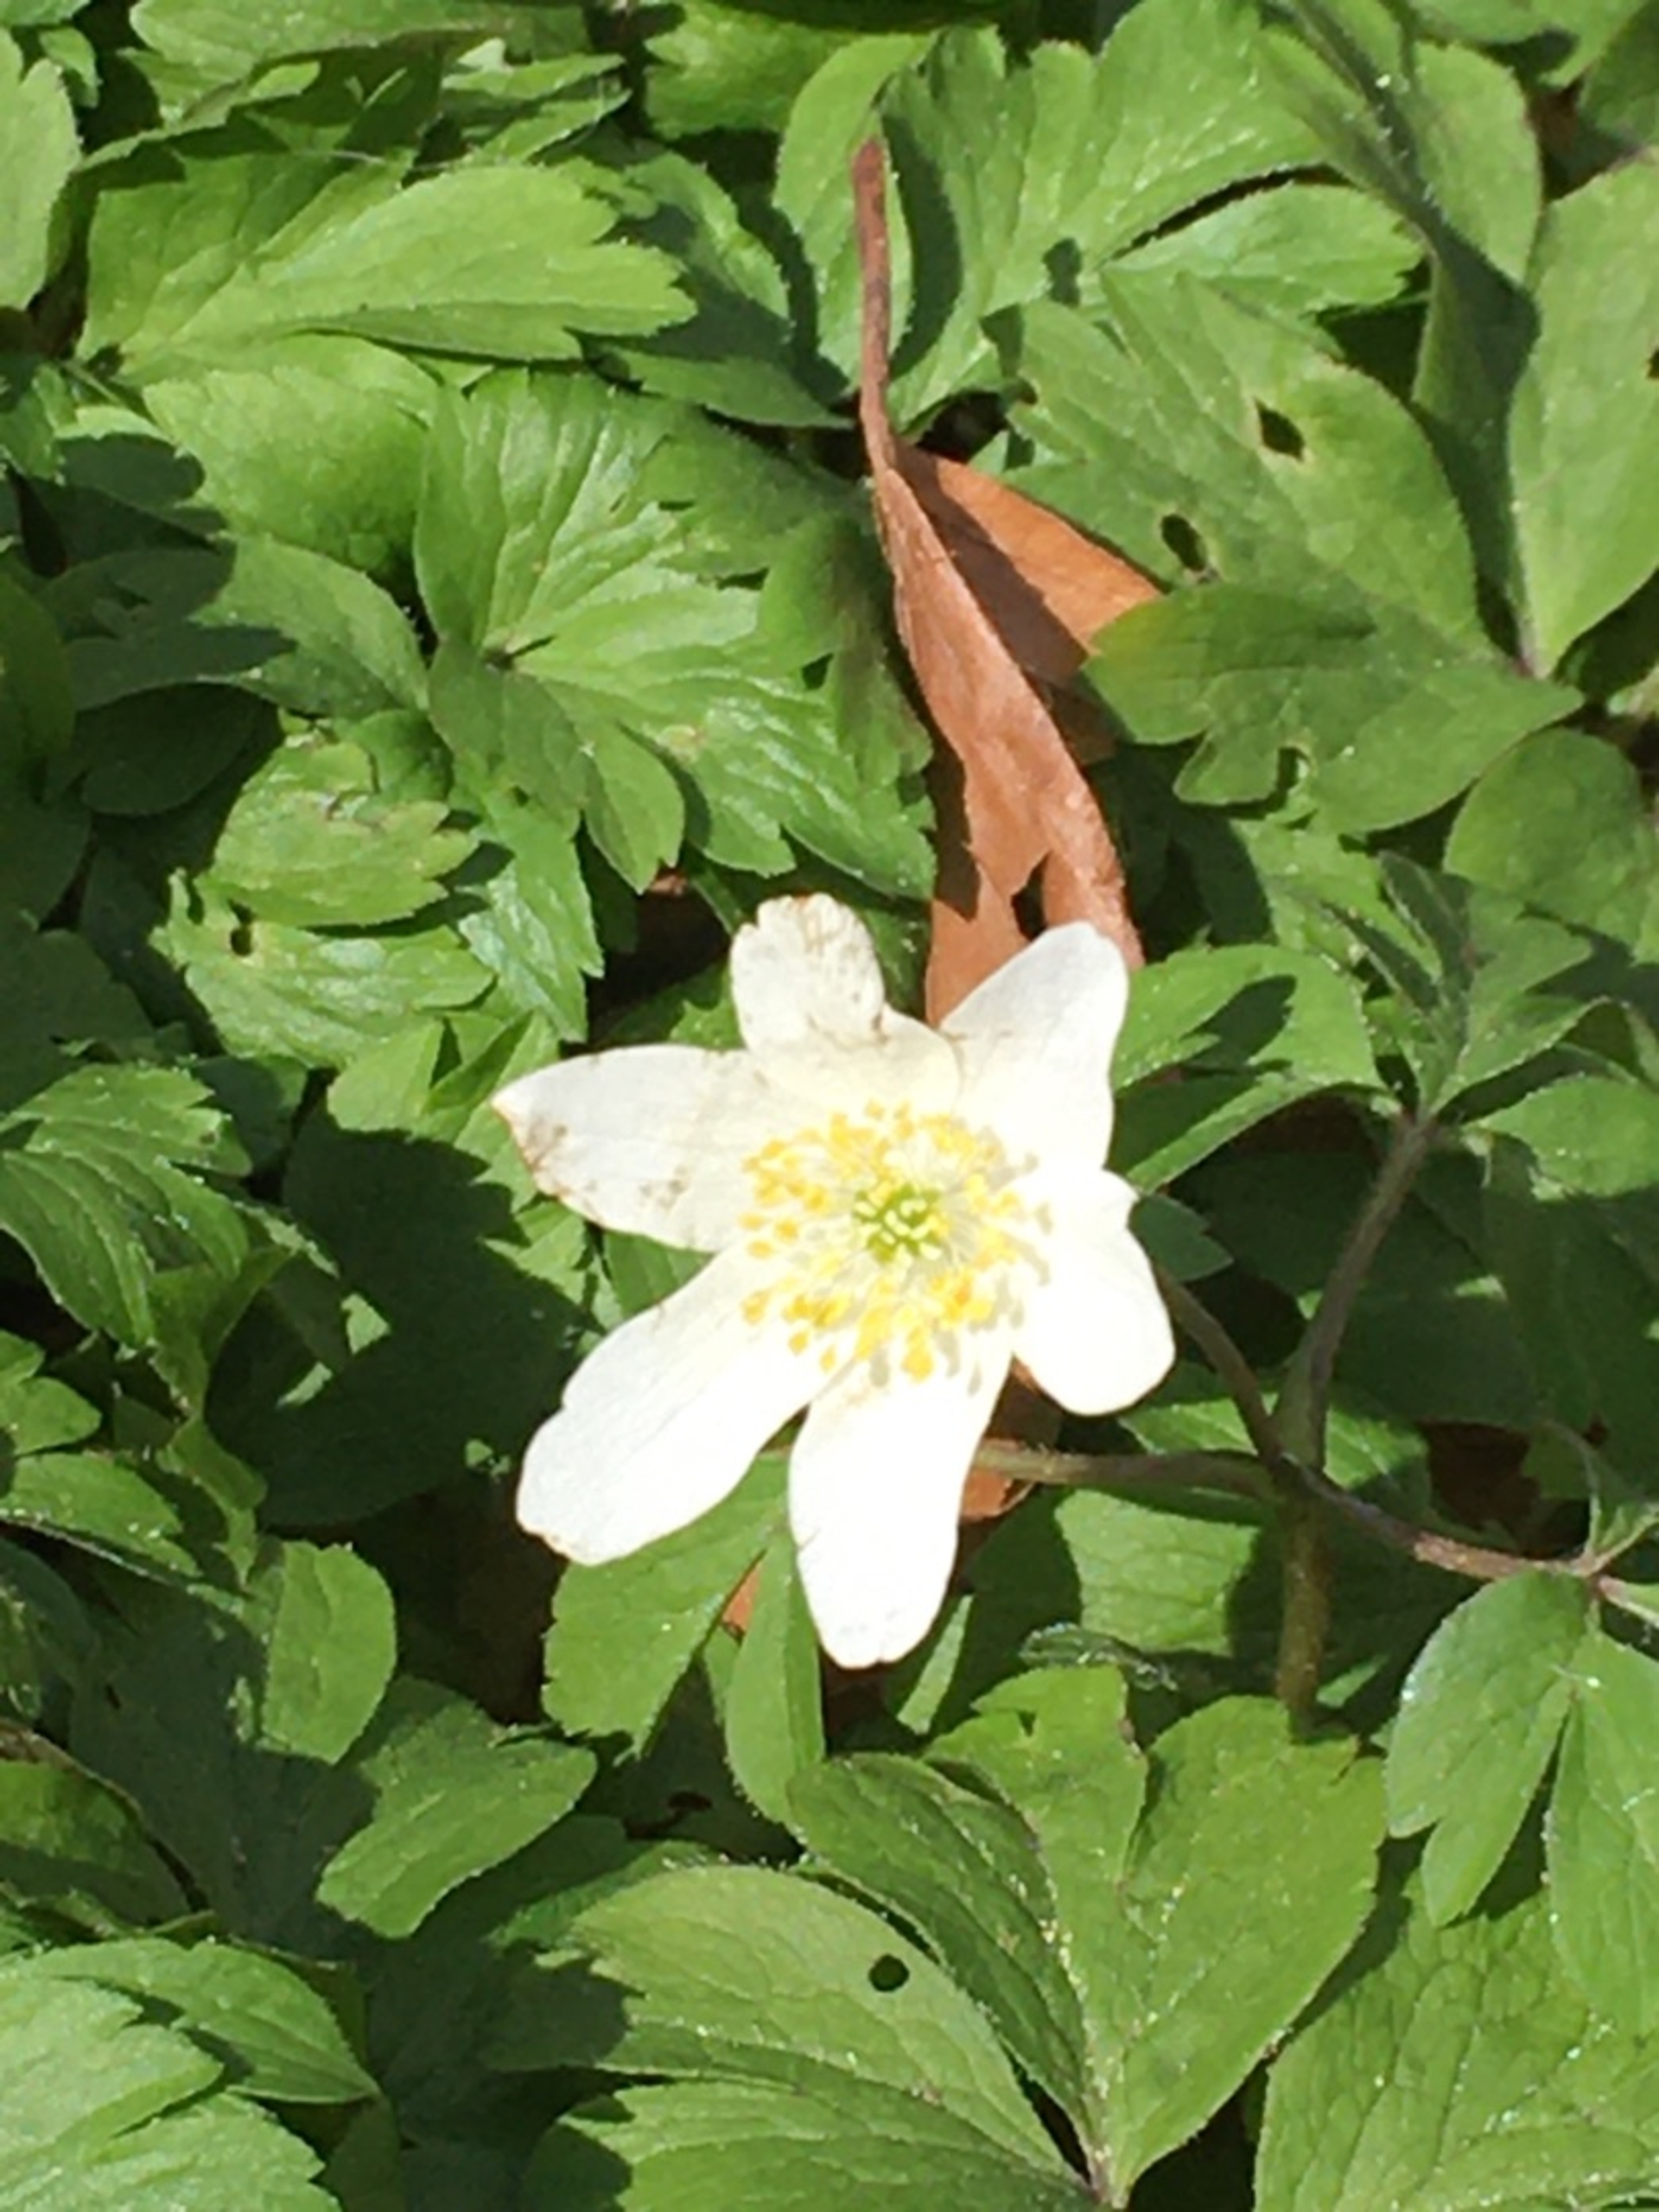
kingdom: Plantae
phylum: Tracheophyta
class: Magnoliopsida
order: Ranunculales
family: Ranunculaceae
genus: Anemone
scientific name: Anemone nemorosa
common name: Hvid anemone
